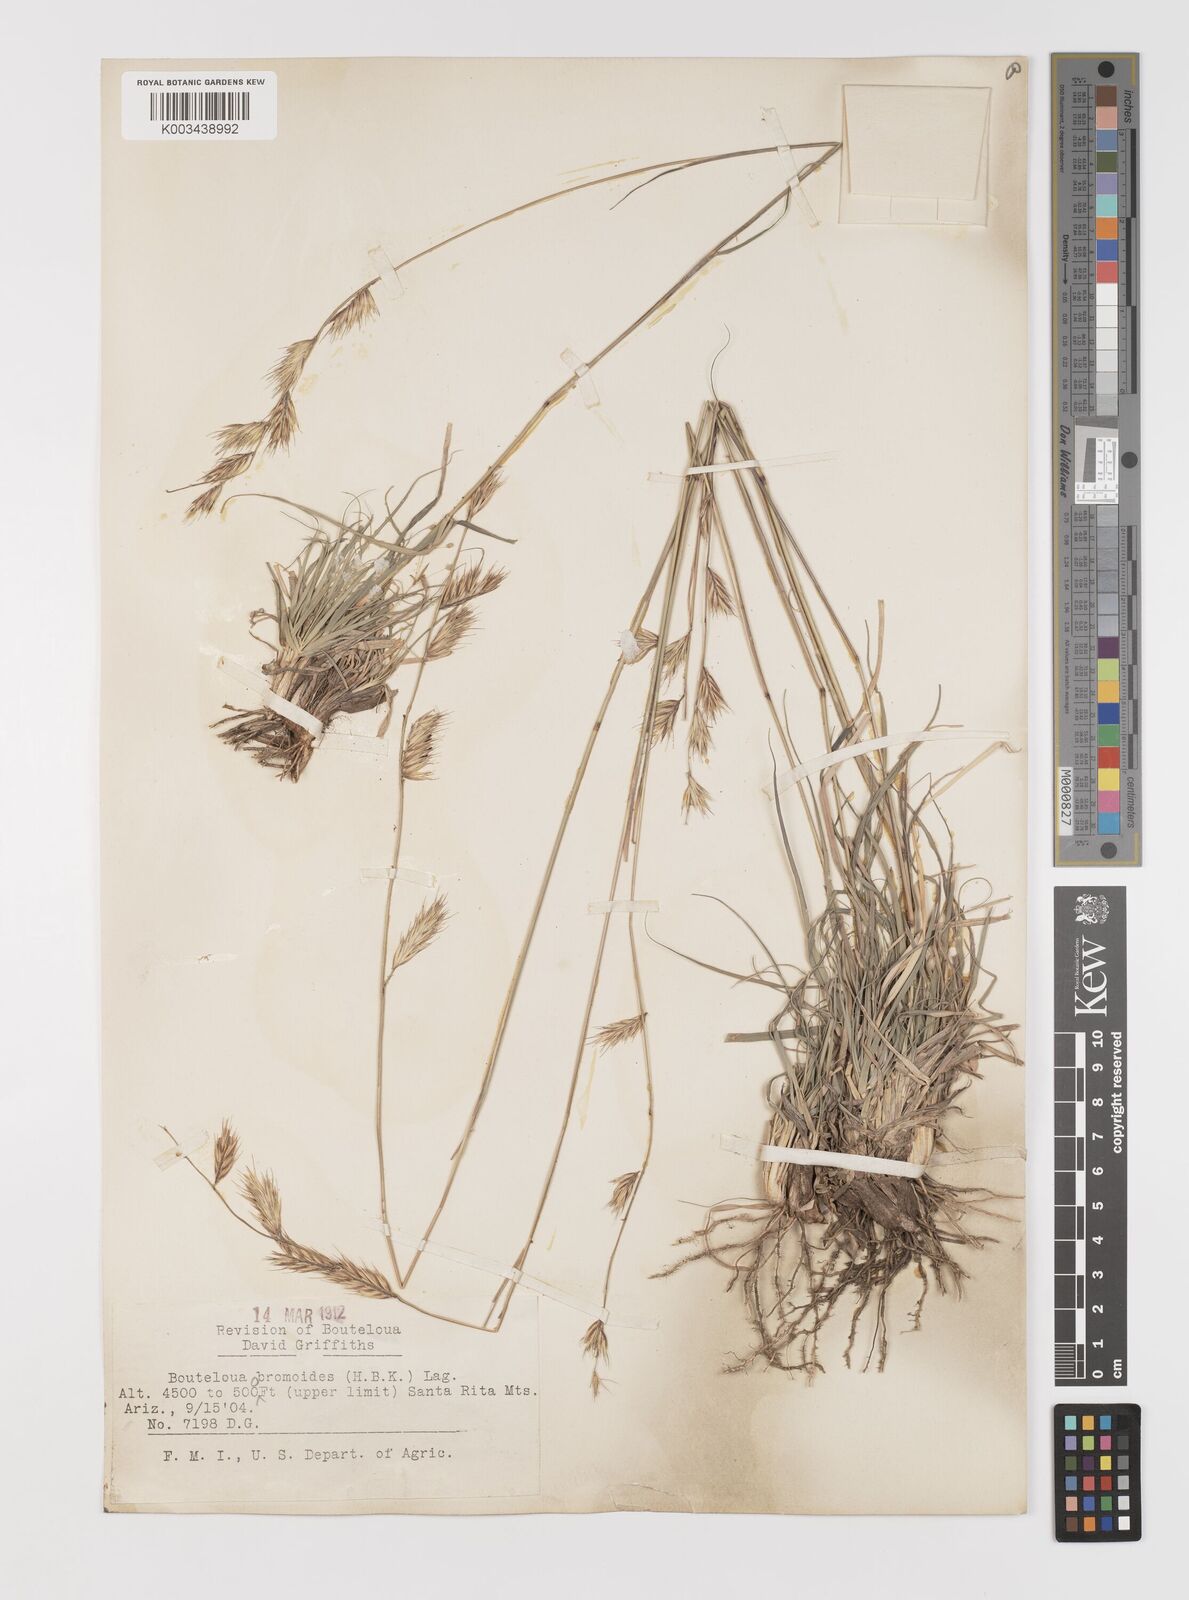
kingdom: Plantae
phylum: Tracheophyta
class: Liliopsida
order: Poales
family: Poaceae
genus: Bouteloua
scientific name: Bouteloua repens
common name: Slender grama
